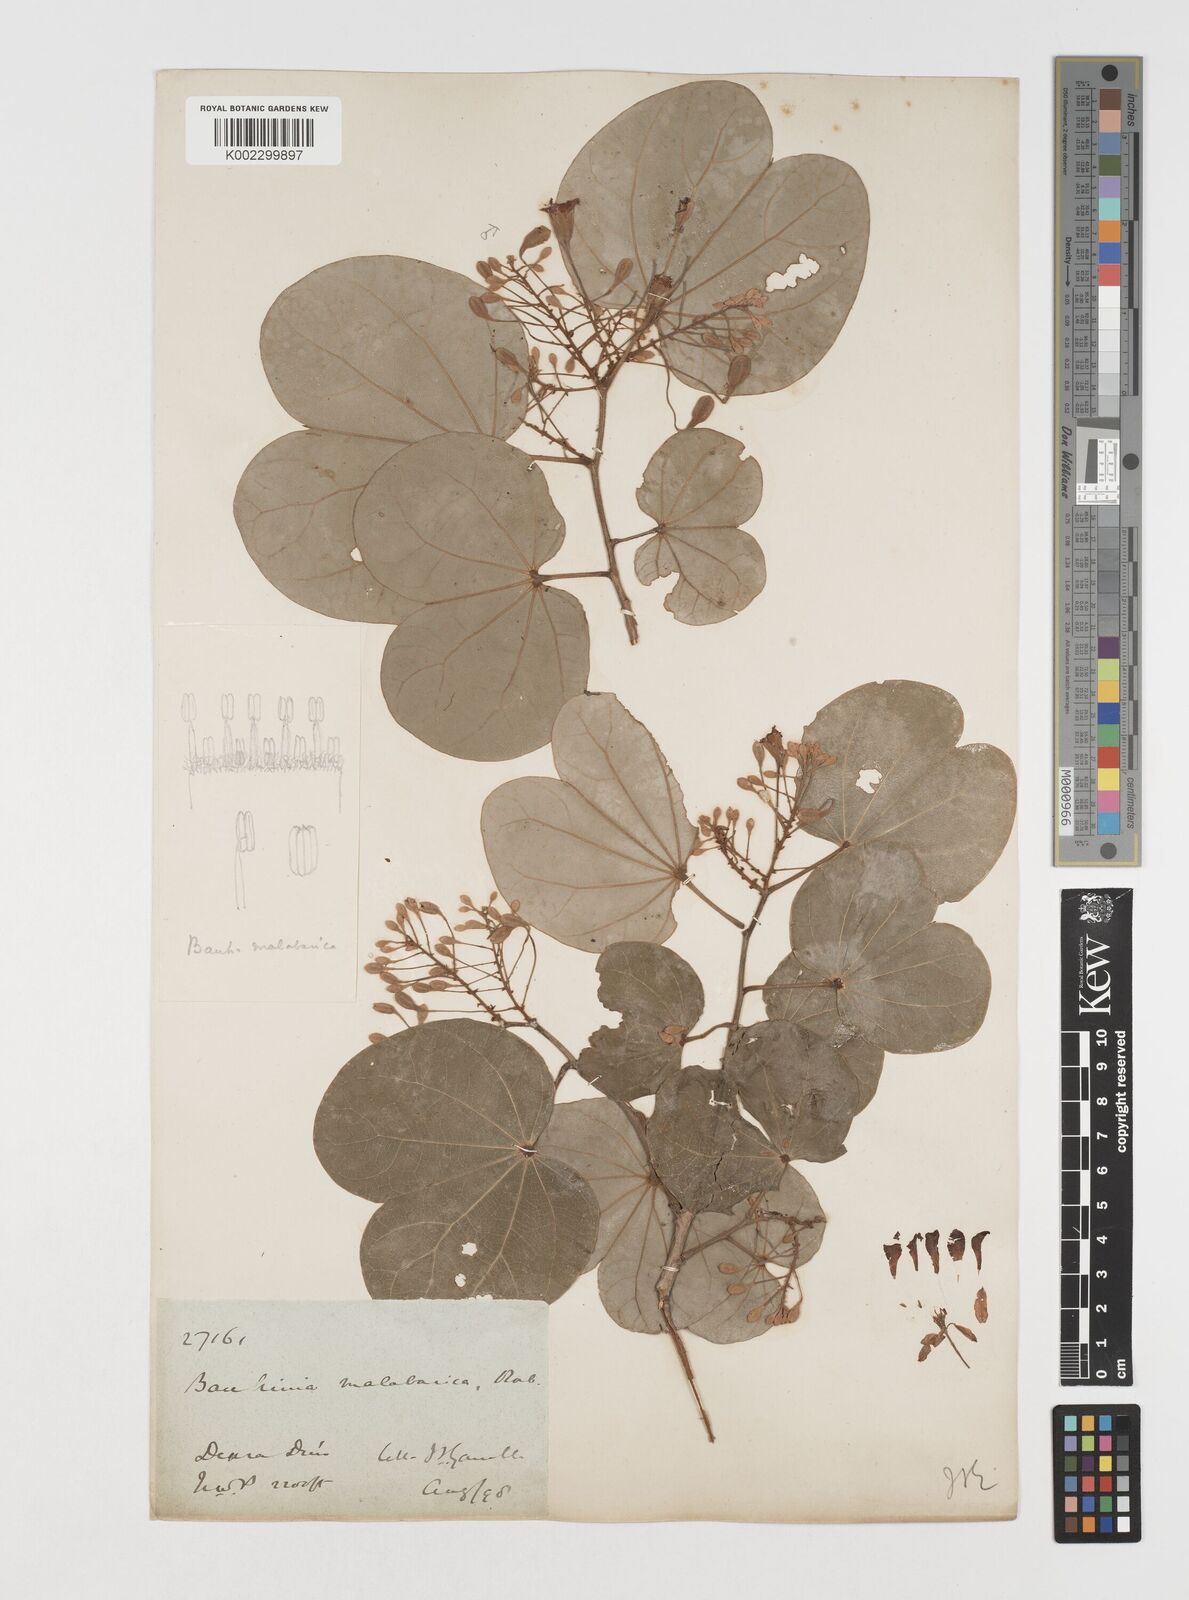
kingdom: Plantae
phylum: Tracheophyta
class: Magnoliopsida
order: Fabales
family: Fabaceae
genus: Piliostigma
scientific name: Piliostigma malabaricum
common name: Malabar bauhinia
